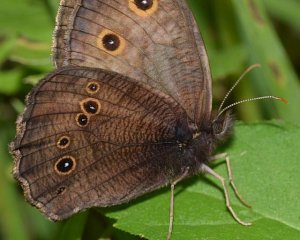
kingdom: Animalia
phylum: Arthropoda
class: Insecta
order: Lepidoptera
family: Nymphalidae
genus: Cercyonis
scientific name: Cercyonis pegala
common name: Common Wood-Nymph
